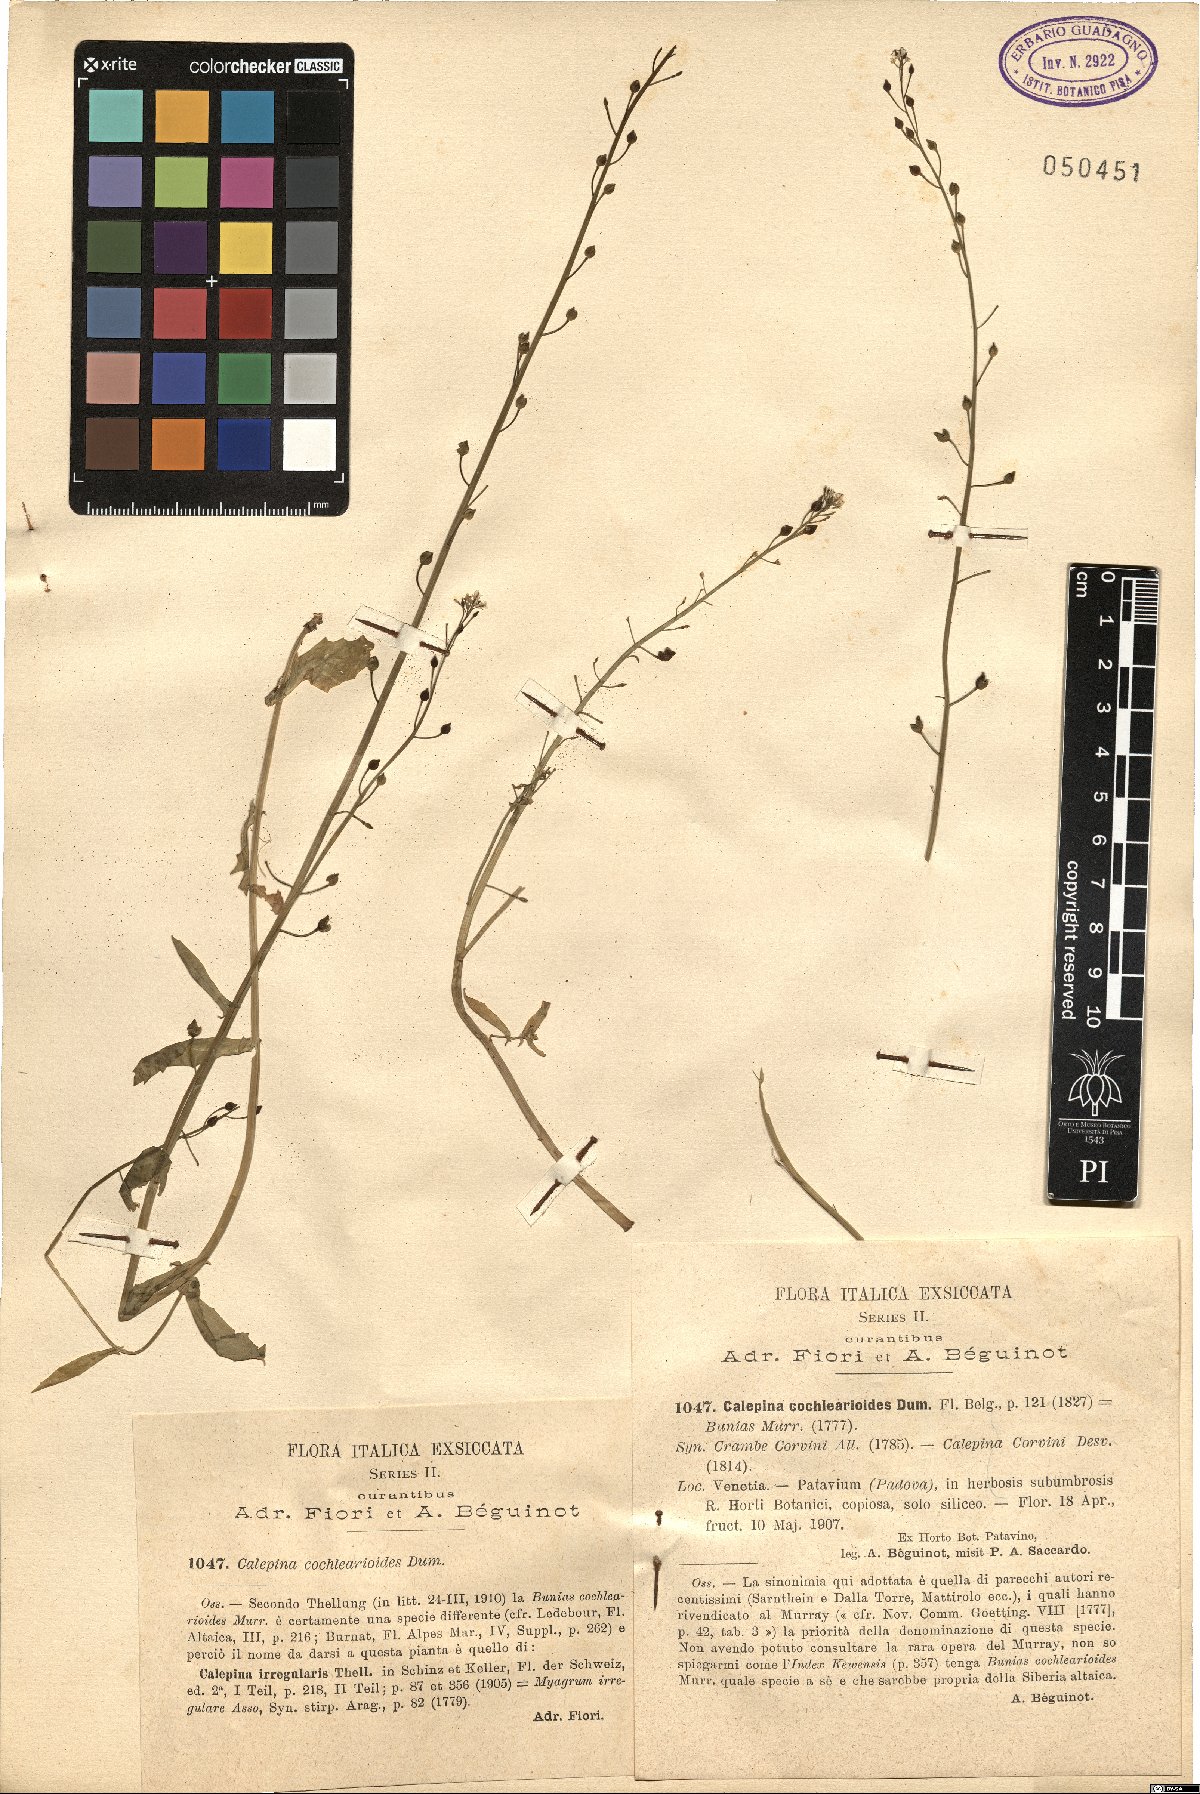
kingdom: Plantae
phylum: Tracheophyta
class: Magnoliopsida
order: Brassicales
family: Brassicaceae
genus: Calepina
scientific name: Calepina cochlearioides
